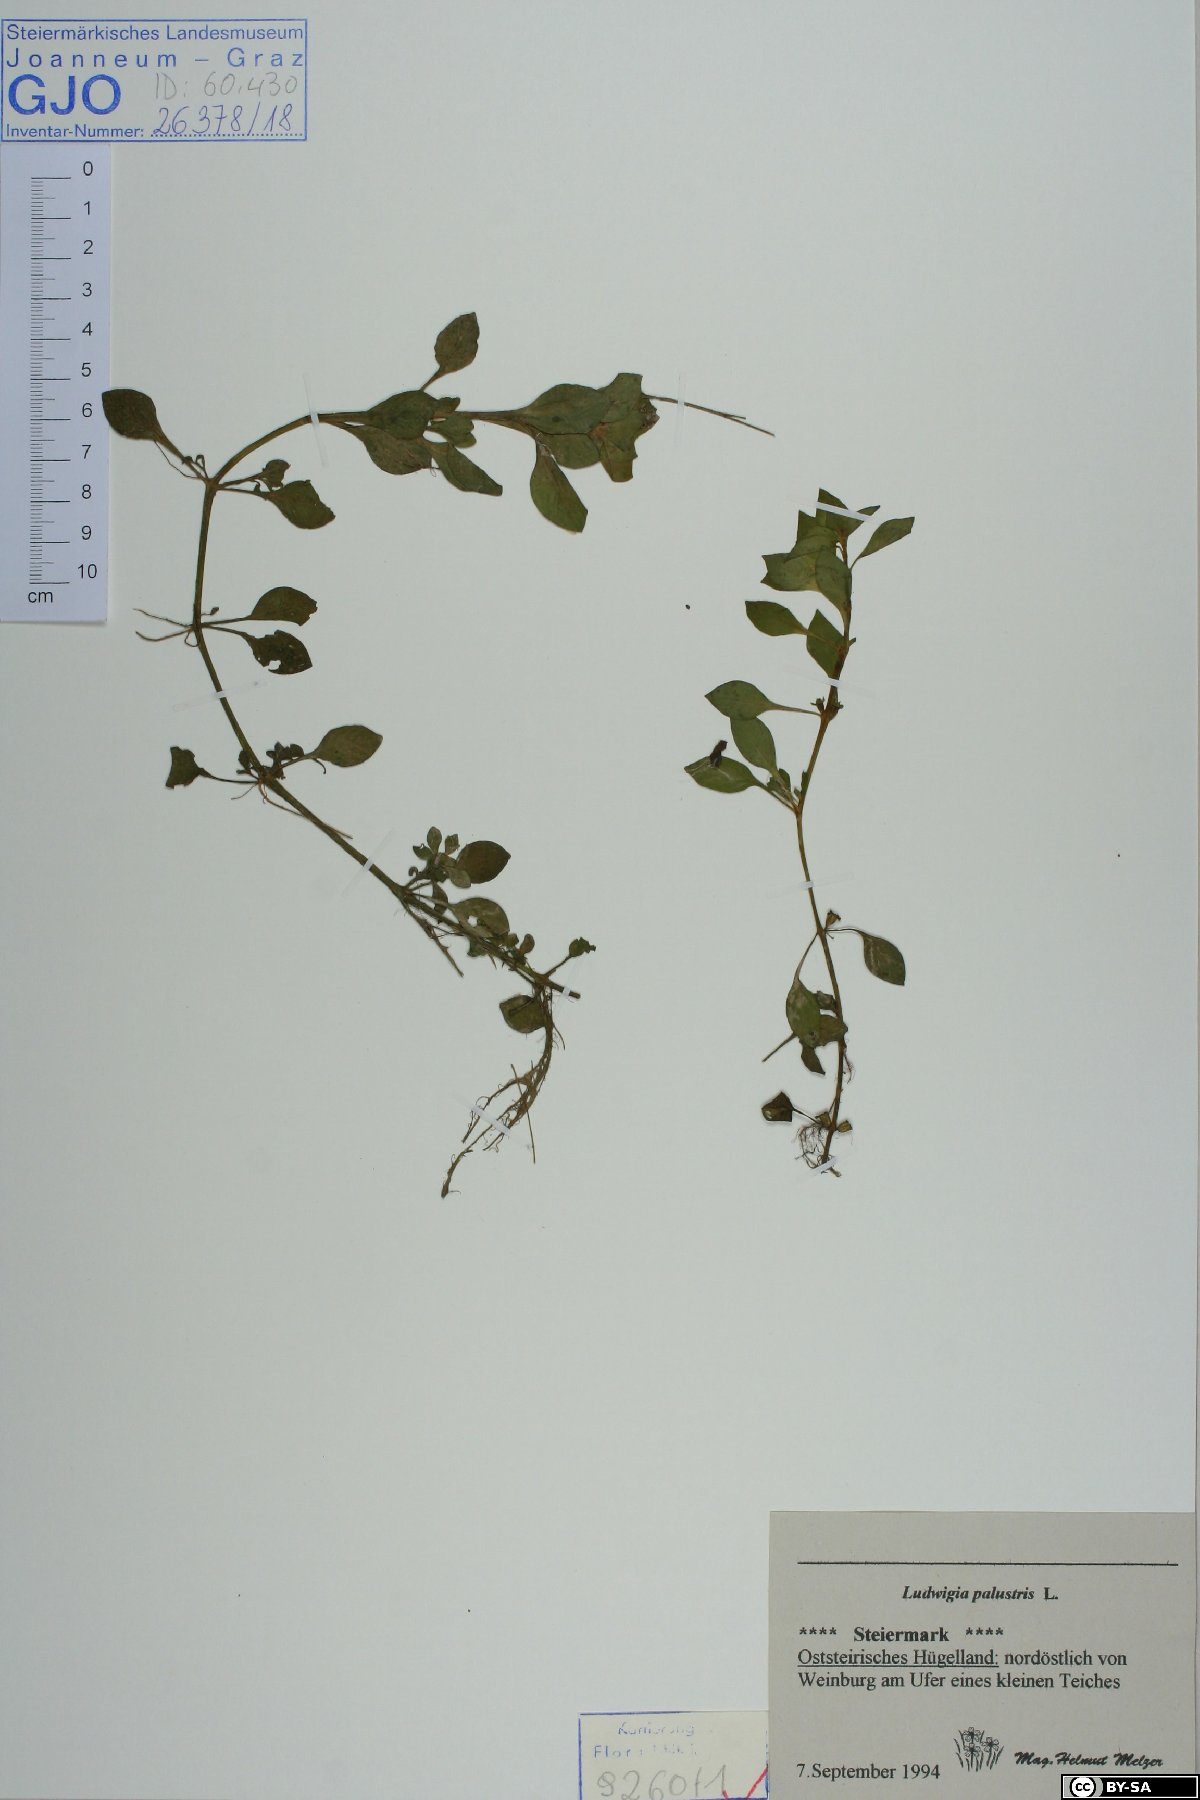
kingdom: Plantae
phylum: Tracheophyta
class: Magnoliopsida
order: Myrtales
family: Onagraceae
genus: Ludwigia
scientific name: Ludwigia palustris
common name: Hampshire-purslane
